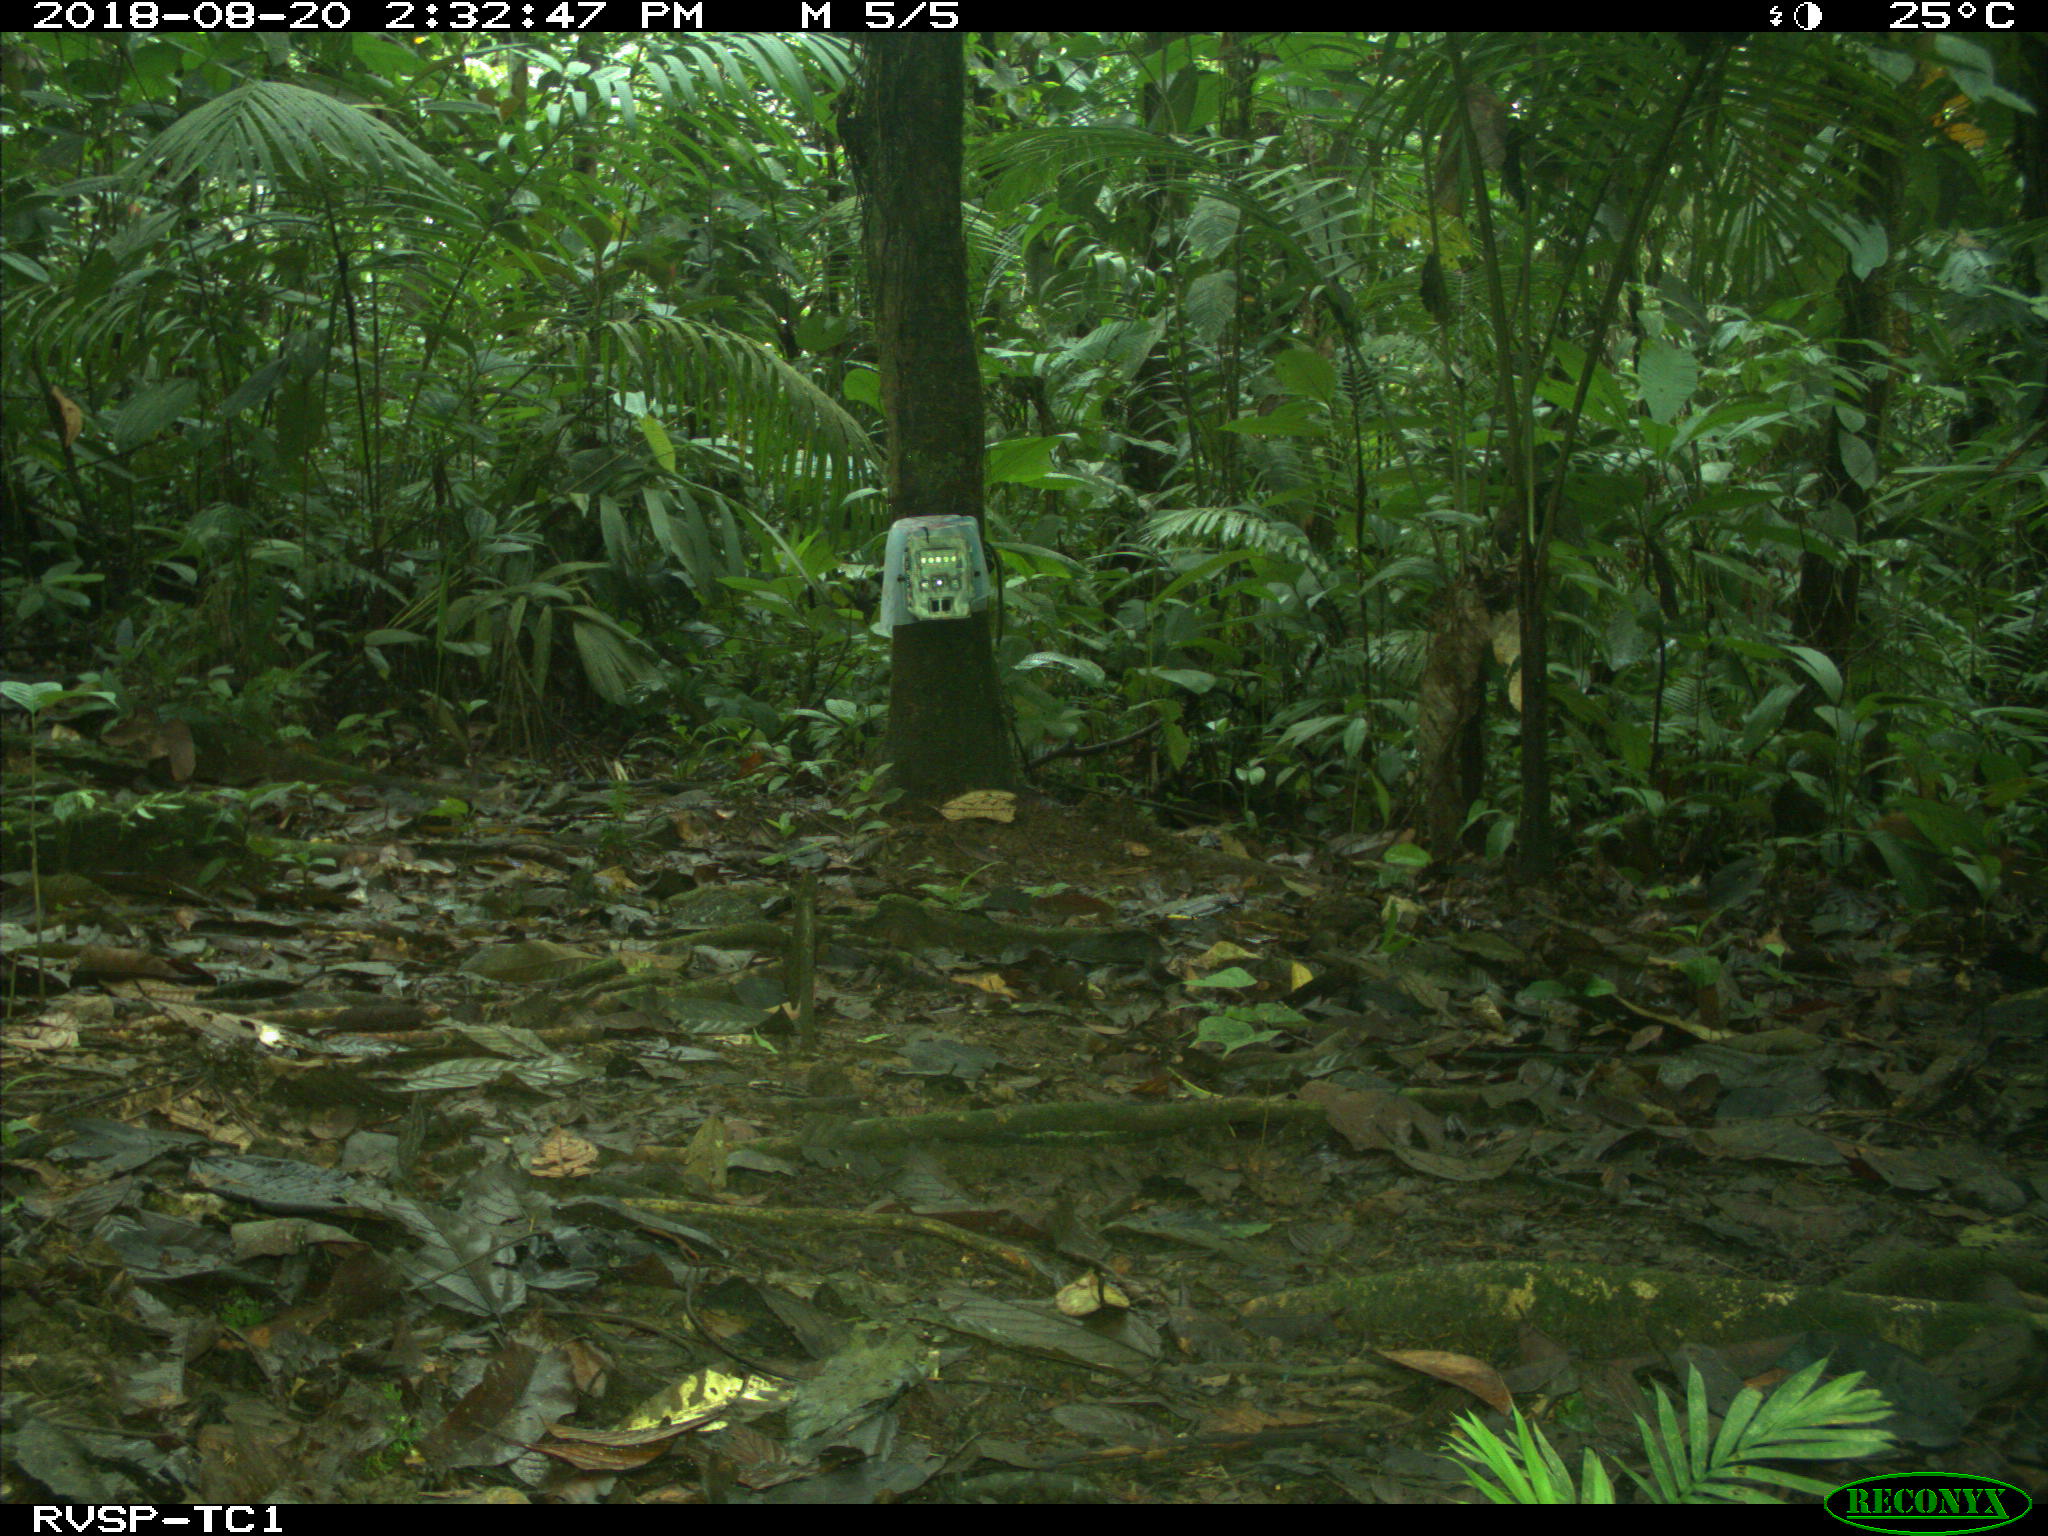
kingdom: Animalia
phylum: Chordata
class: Mammalia
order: Rodentia
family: Dasyproctidae
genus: Dasyprocta
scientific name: Dasyprocta punctata
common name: Central american agouti
